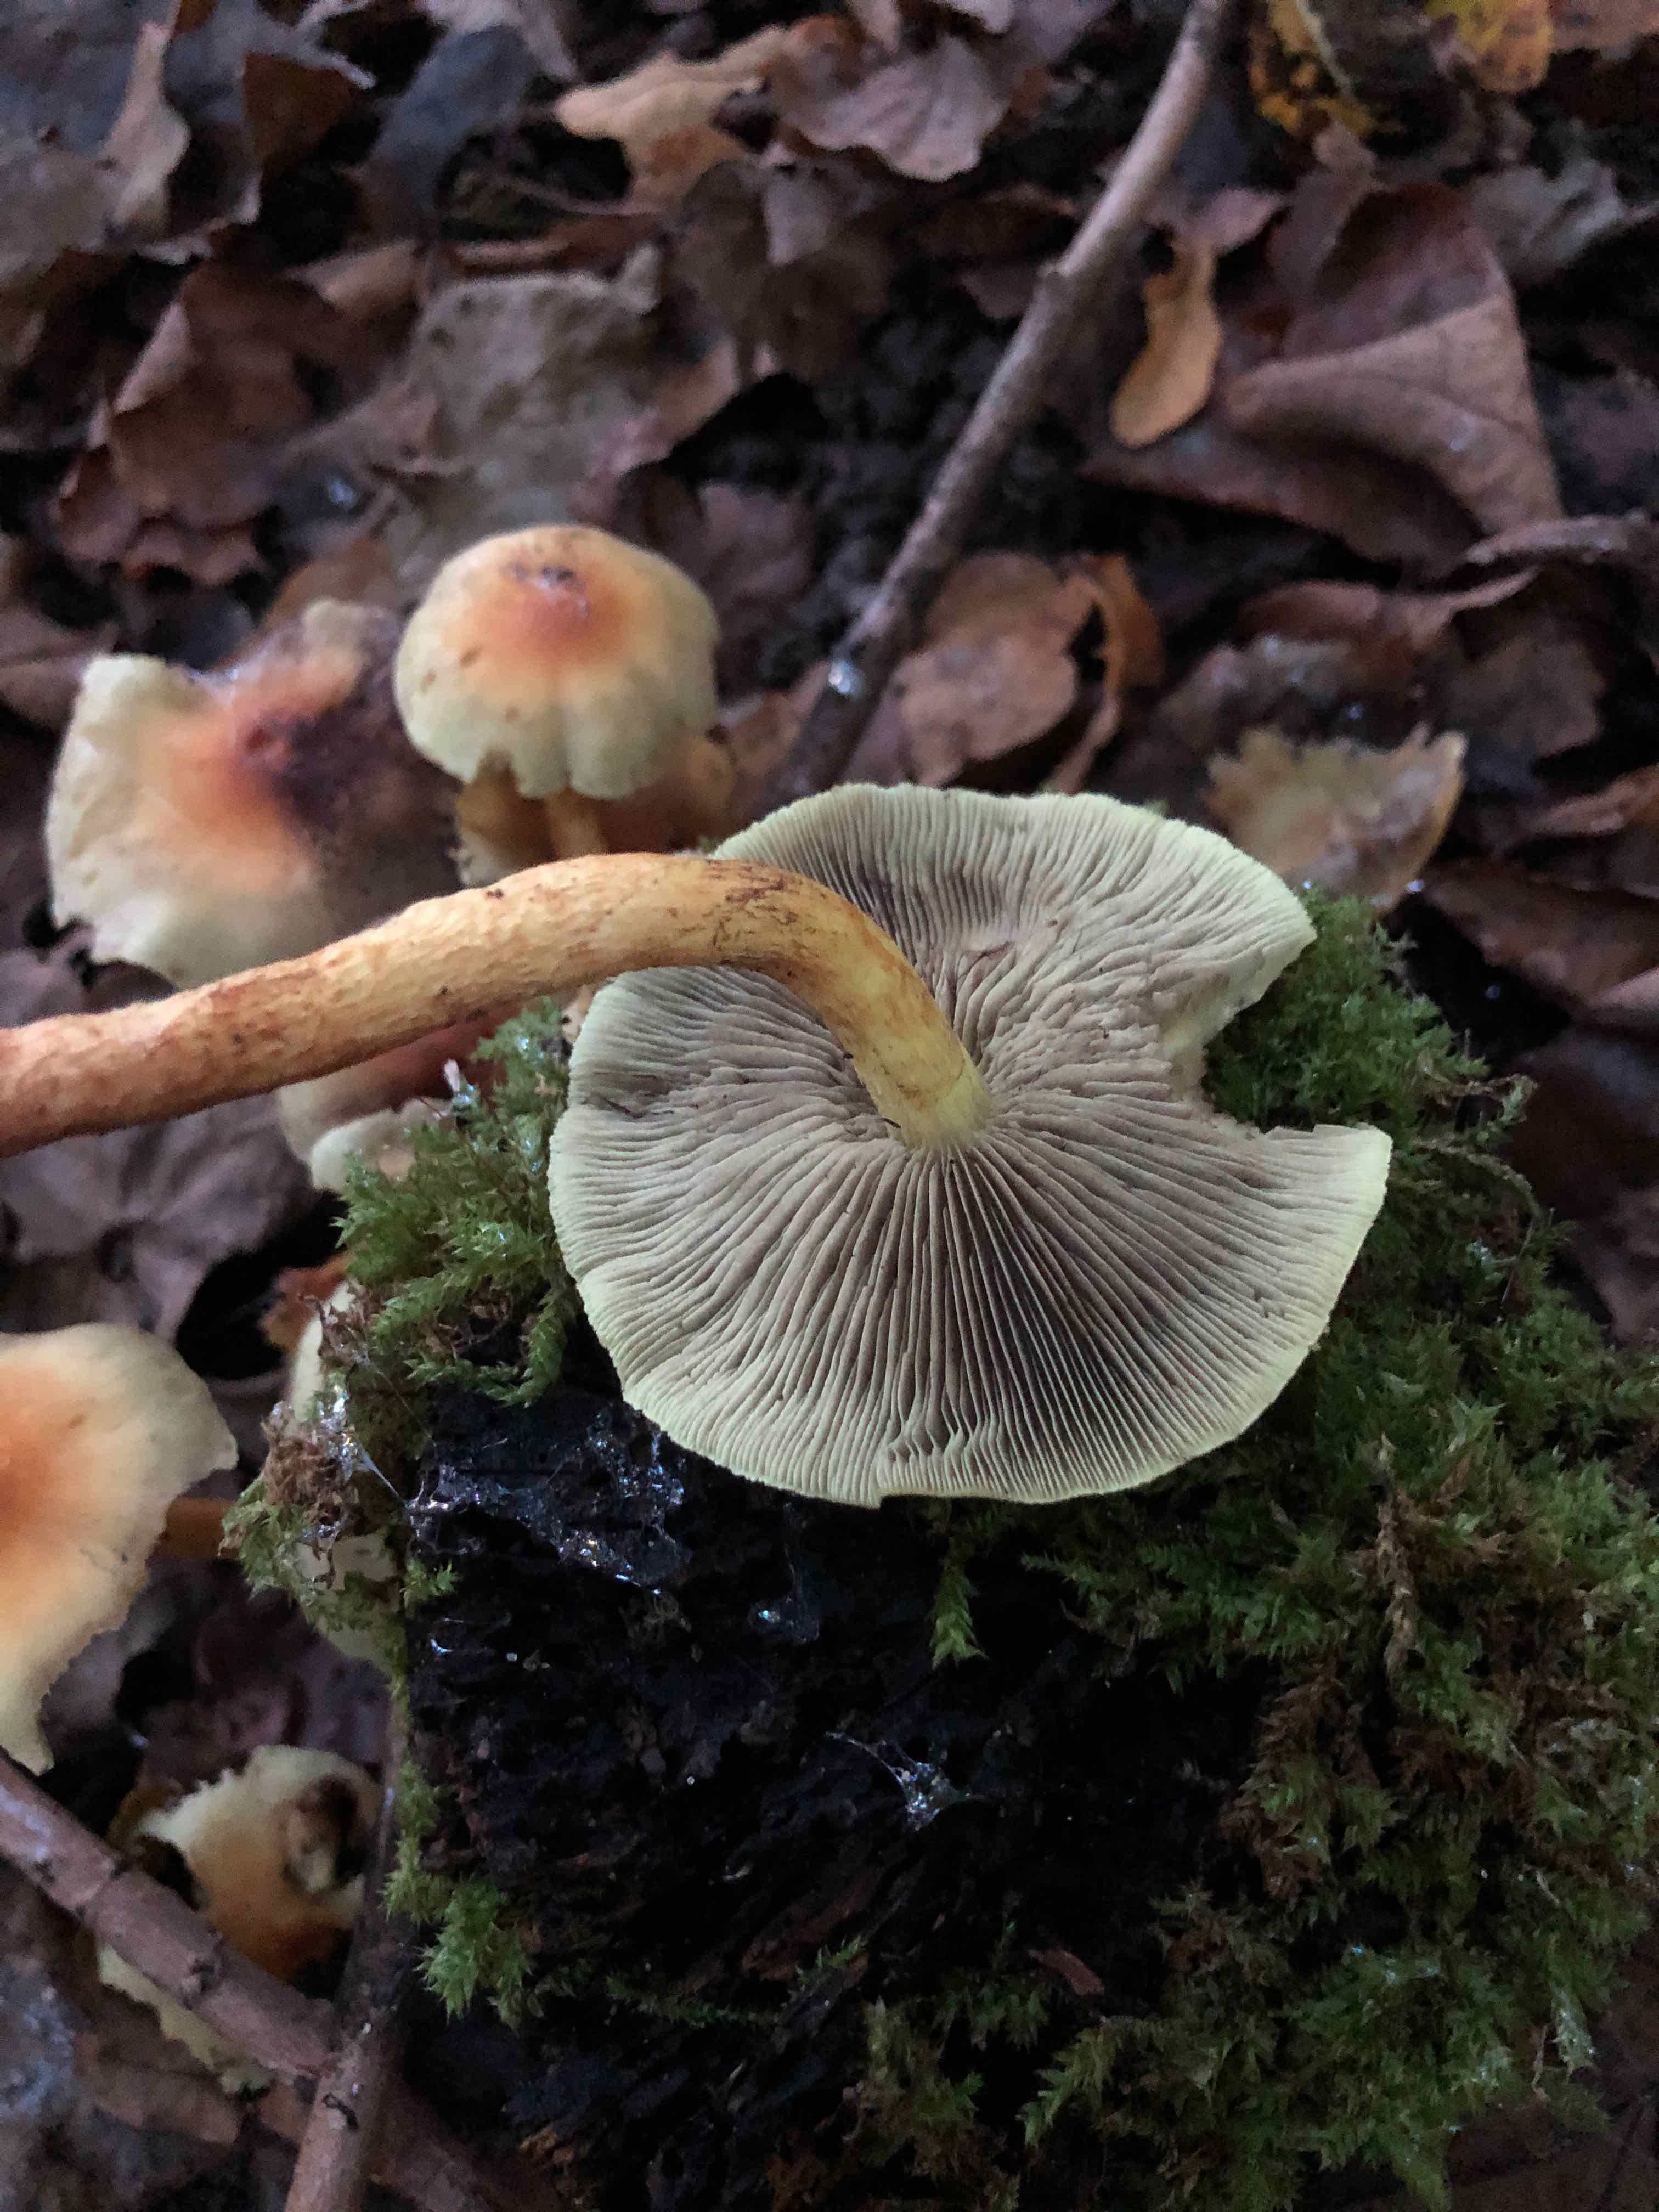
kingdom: Fungi
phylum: Basidiomycota
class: Agaricomycetes
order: Agaricales
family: Strophariaceae
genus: Hypholoma
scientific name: Hypholoma fasciculare
